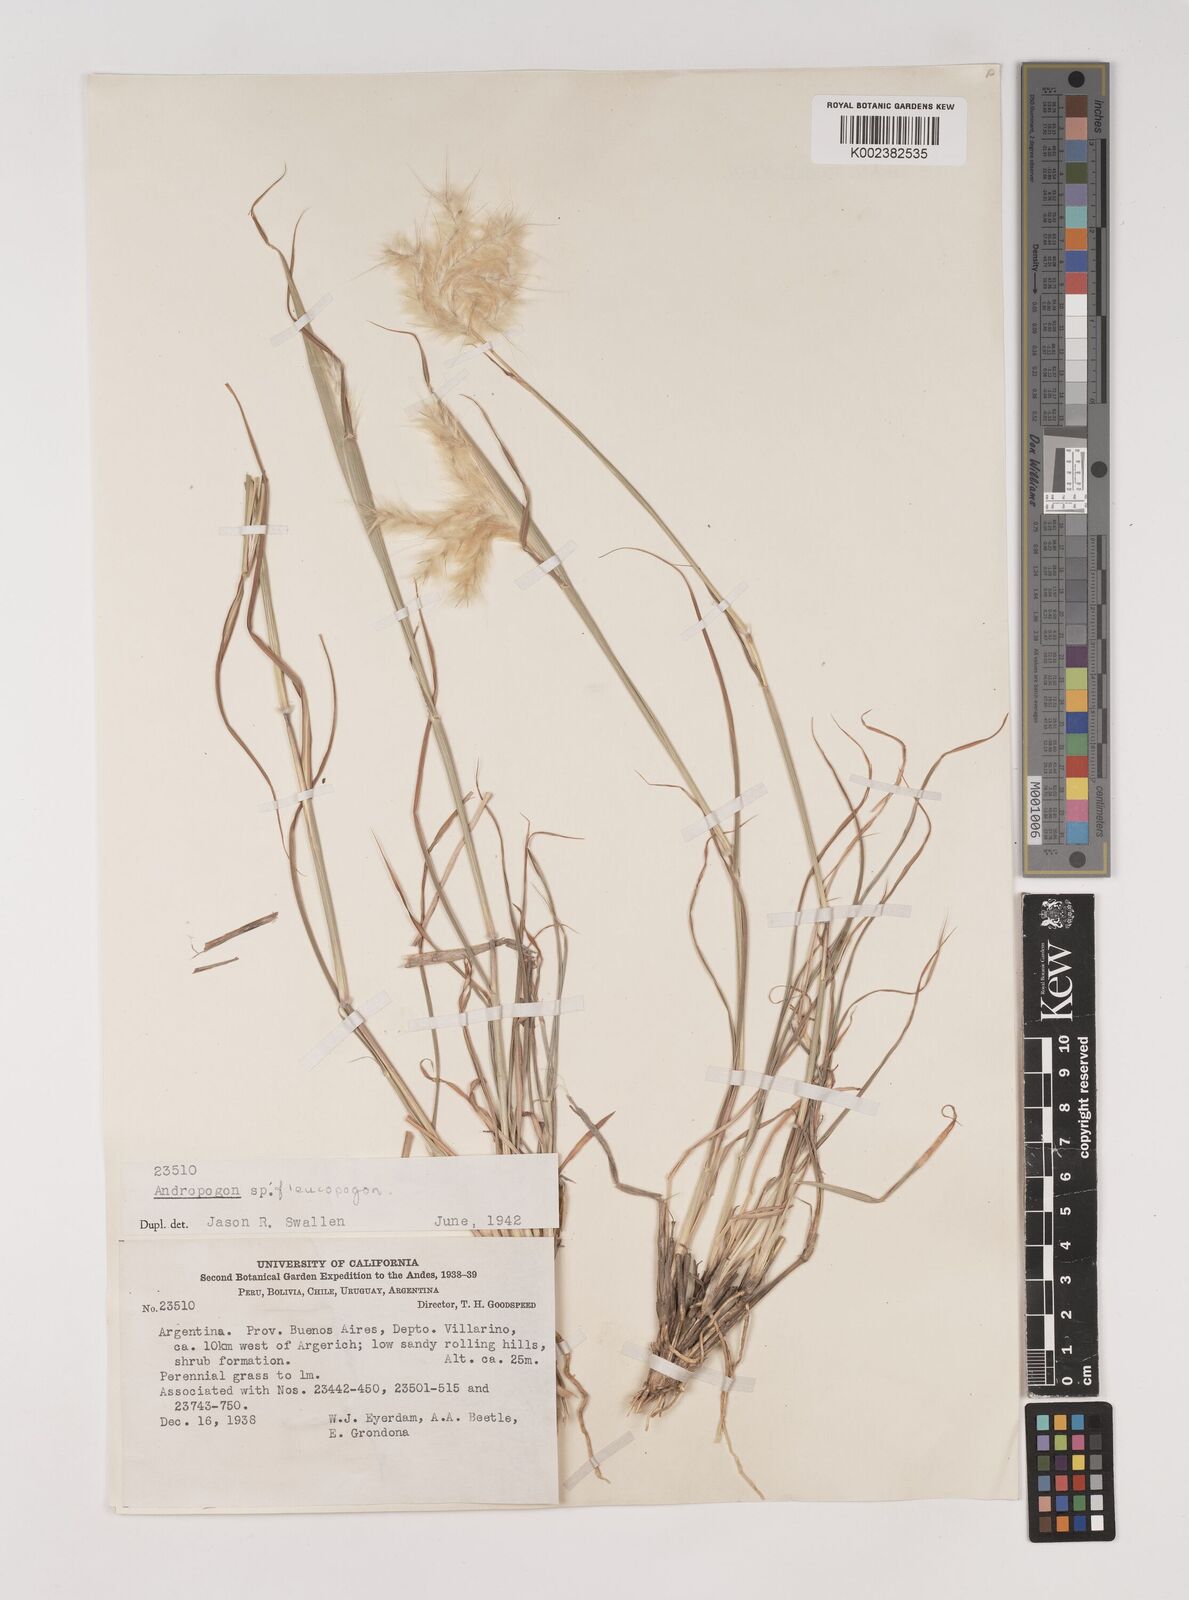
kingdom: Plantae
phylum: Tracheophyta
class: Liliopsida
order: Poales
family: Poaceae
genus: Bothriochloa
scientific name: Bothriochloa springfieldii
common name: Springfield bluestem
